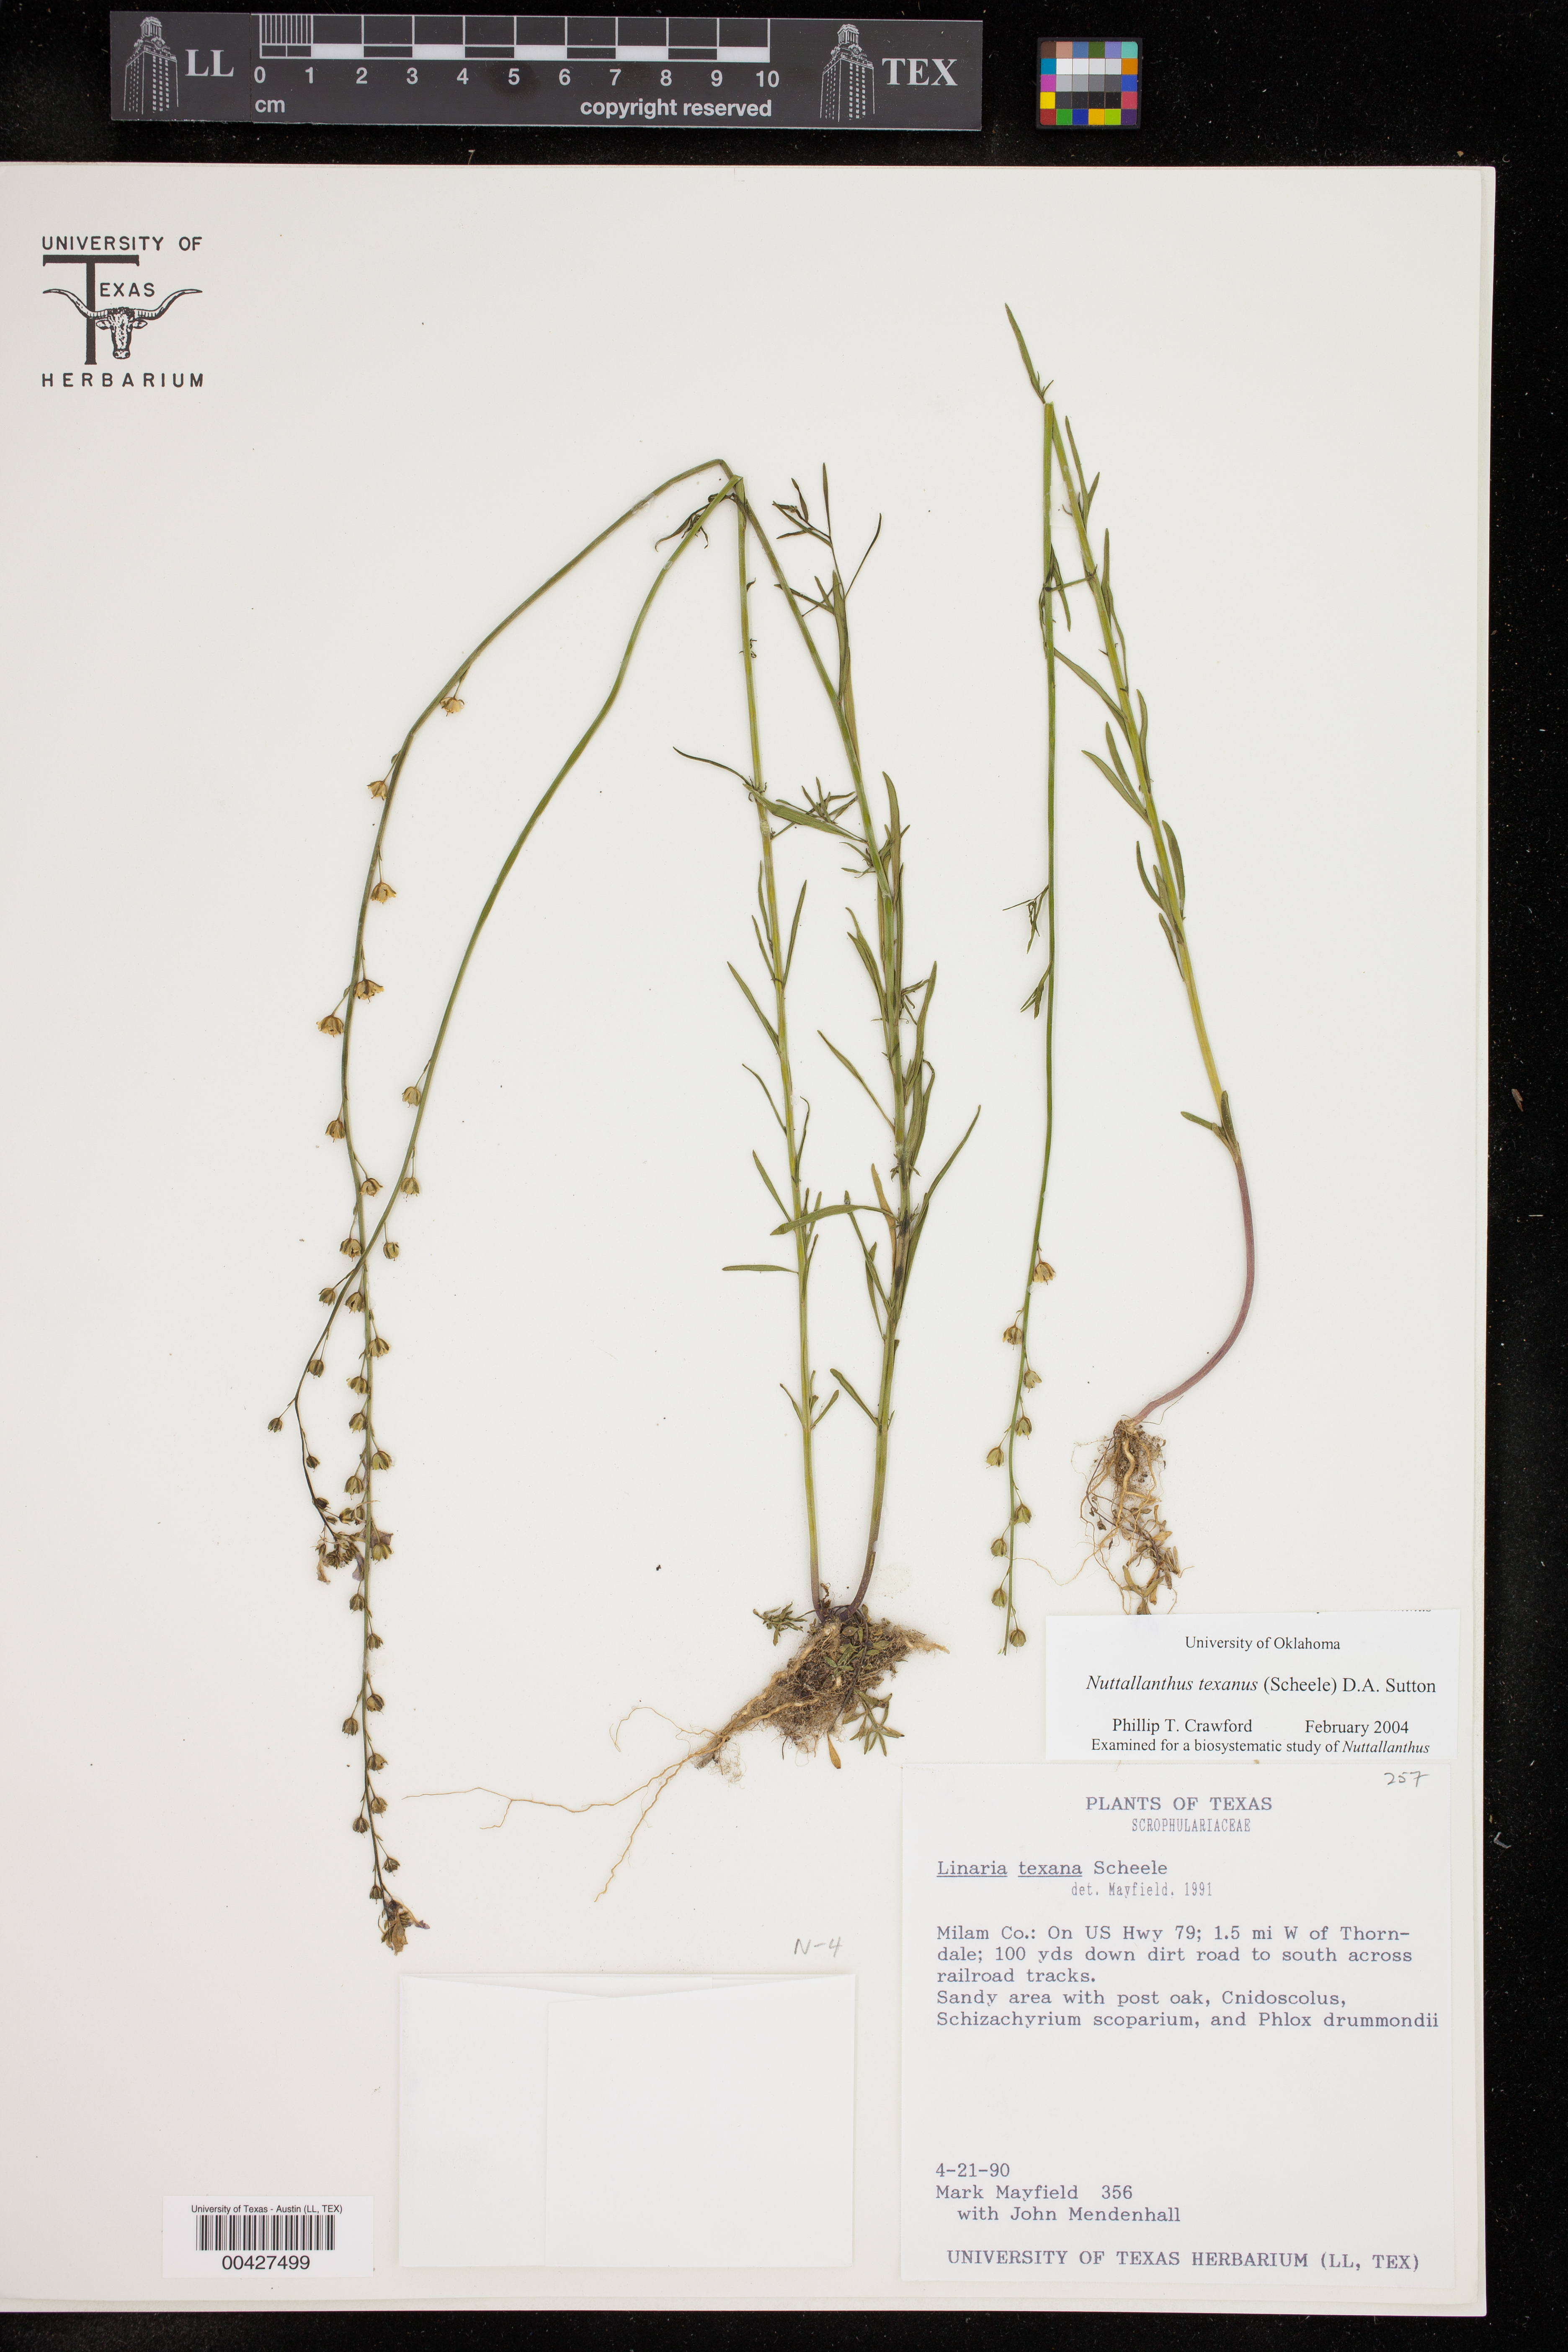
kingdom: Plantae
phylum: Tracheophyta
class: Magnoliopsida
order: Lamiales
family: Plantaginaceae
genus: Nuttallanthus
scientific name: Nuttallanthus texanus
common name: Texas toadflax
